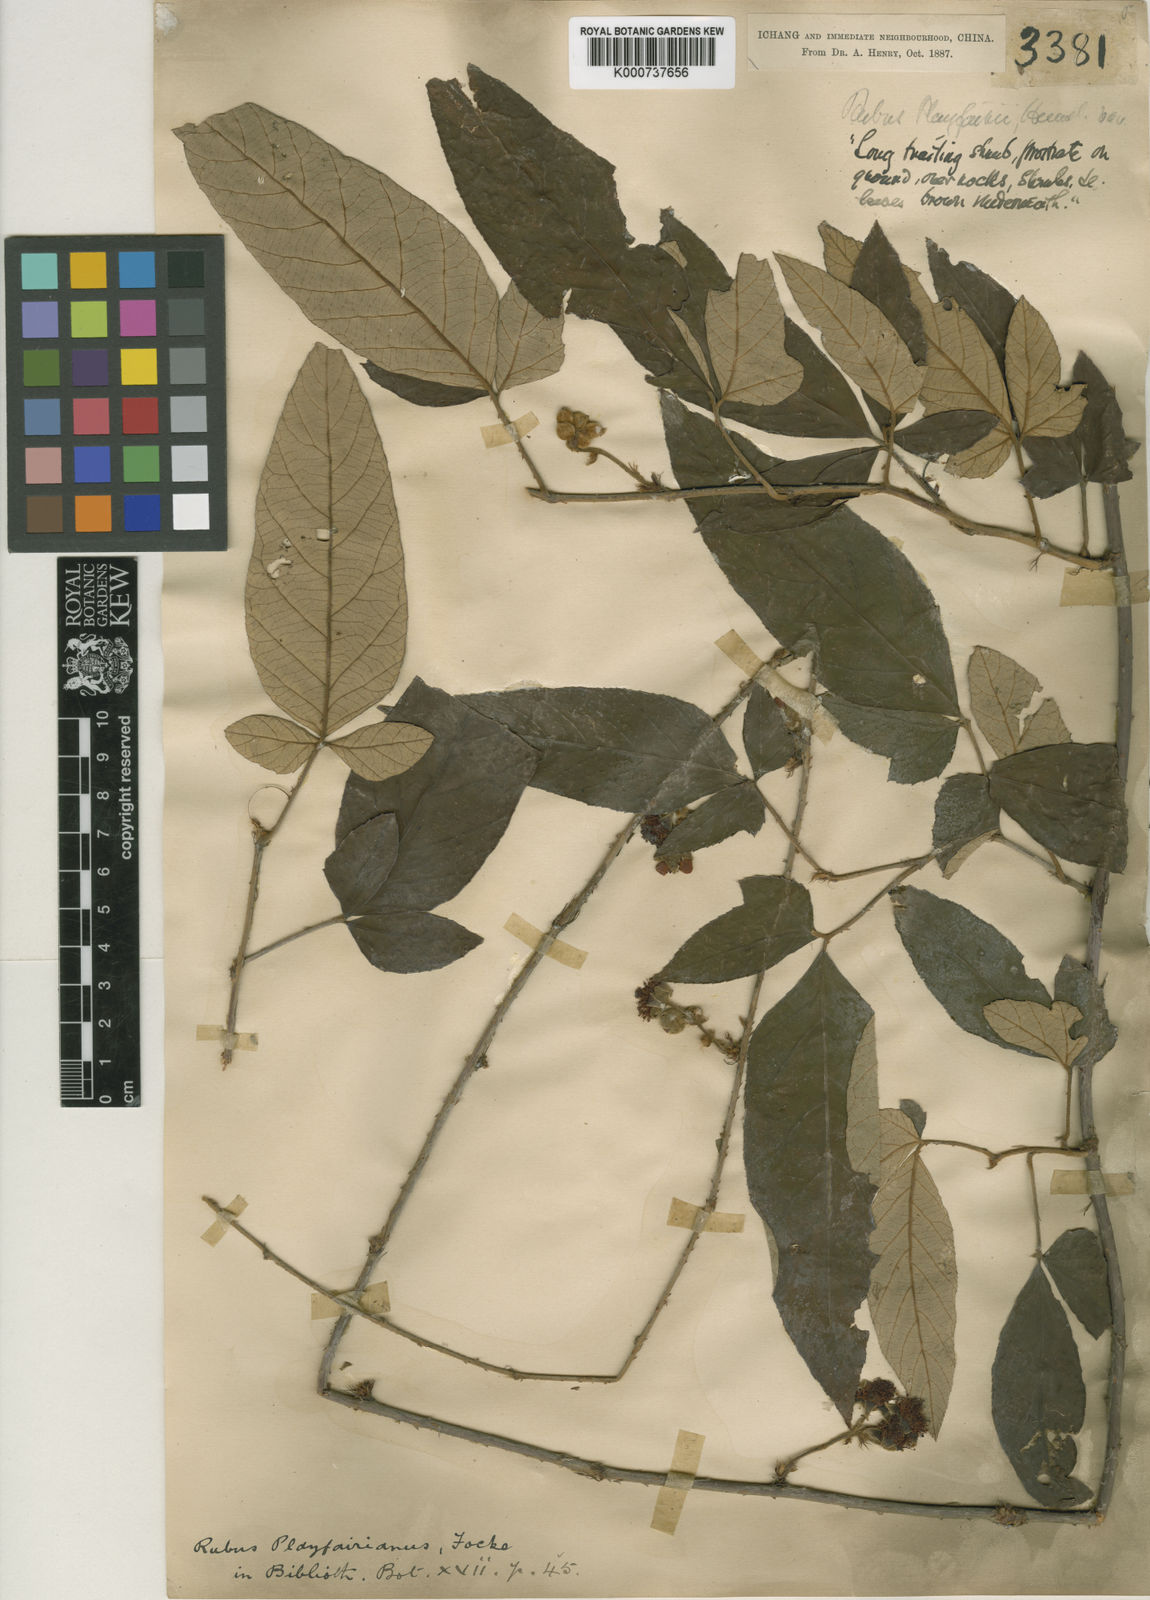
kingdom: Plantae
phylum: Tracheophyta
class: Magnoliopsida
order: Rosales
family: Rosaceae
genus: Rubus
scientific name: Rubus playfairianus
